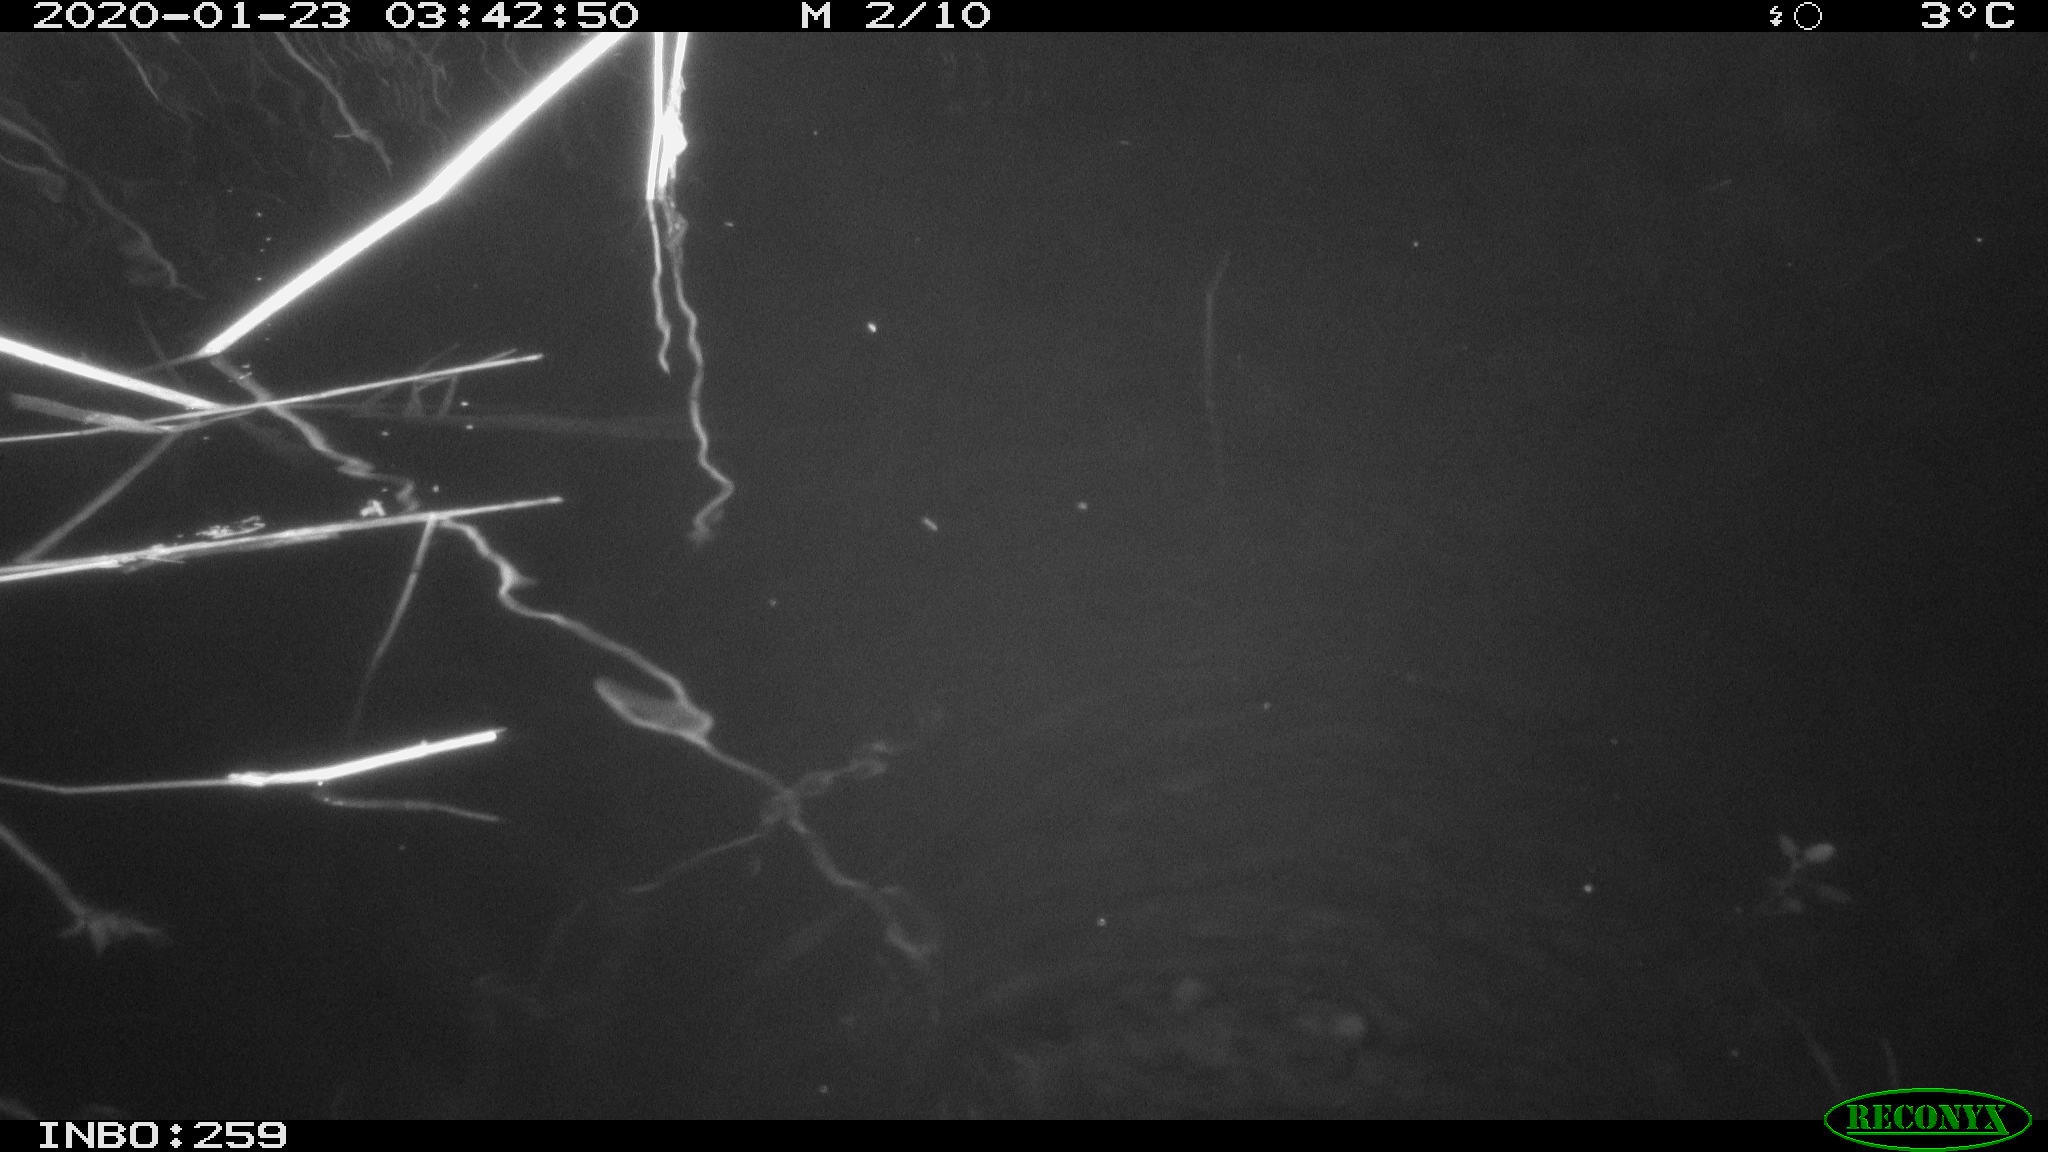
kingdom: Animalia
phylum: Chordata
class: Mammalia
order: Rodentia
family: Cricetidae
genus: Ondatra
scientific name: Ondatra zibethicus
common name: Muskrat
